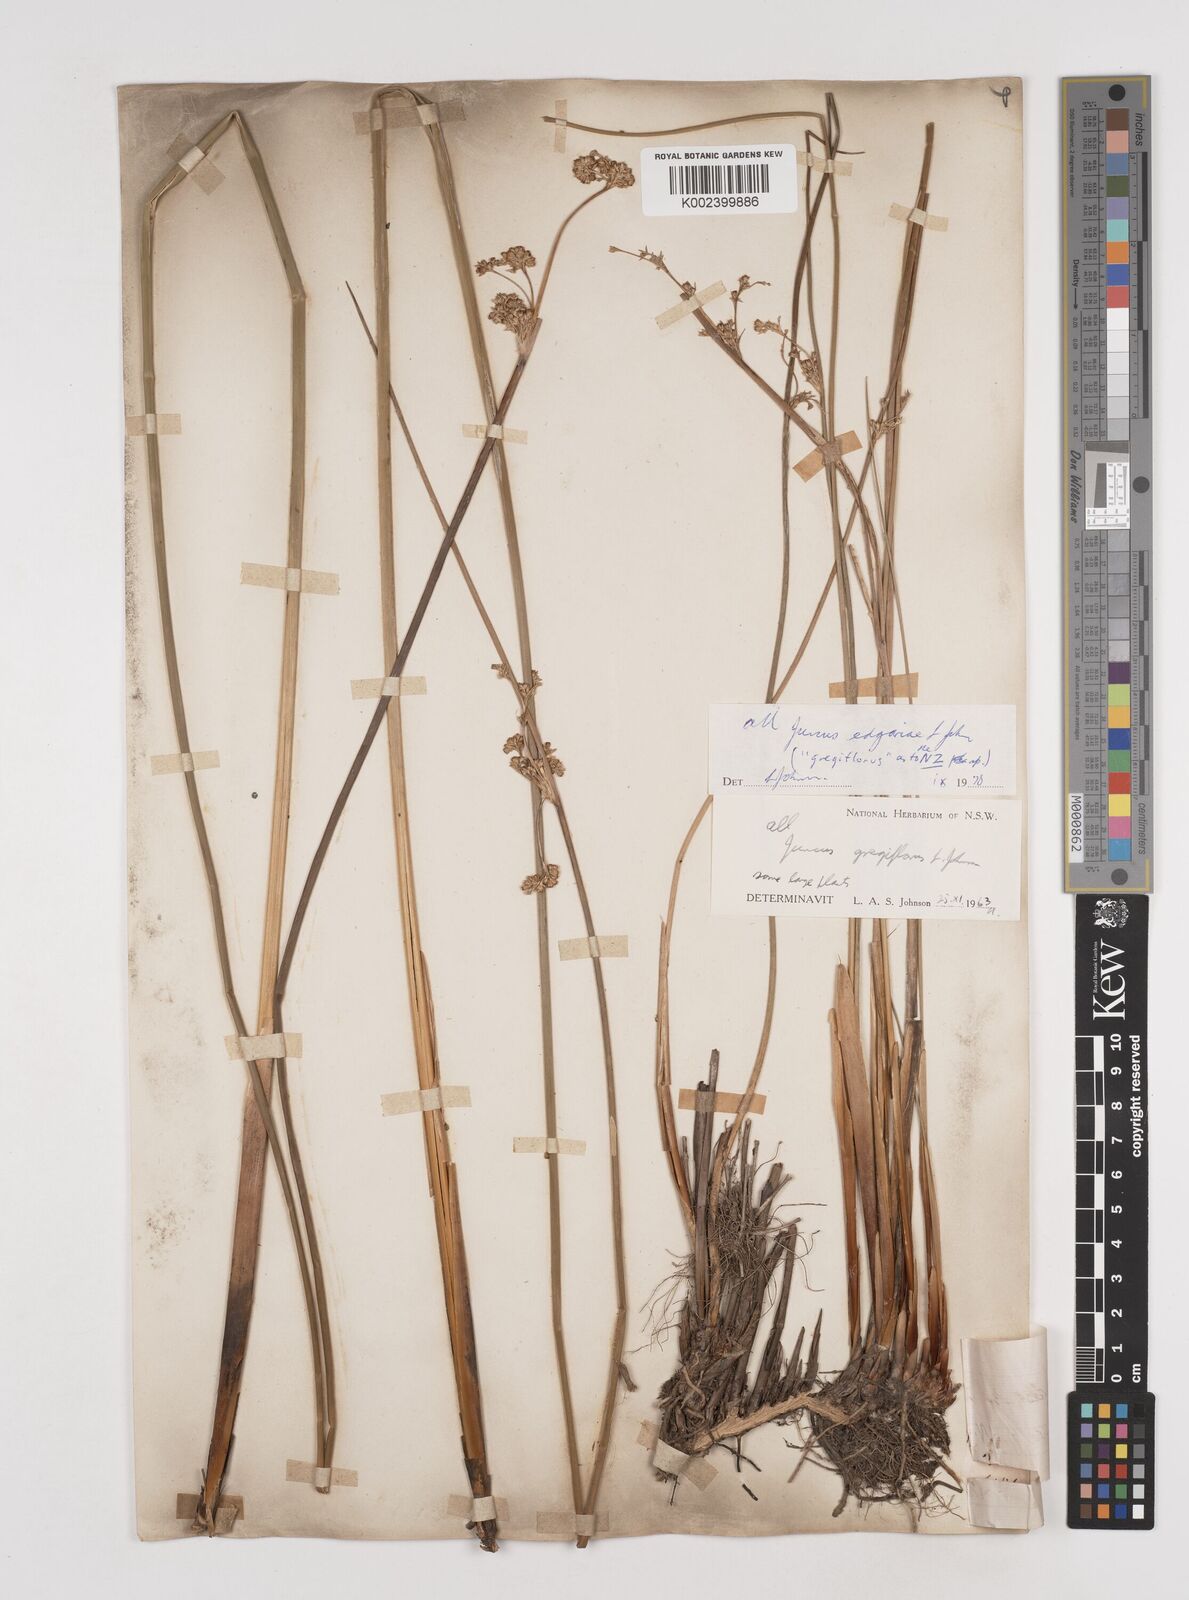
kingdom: Plantae
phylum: Tracheophyta
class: Liliopsida
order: Poales
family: Juncaceae
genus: Juncus
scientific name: Juncus gregiflorus
